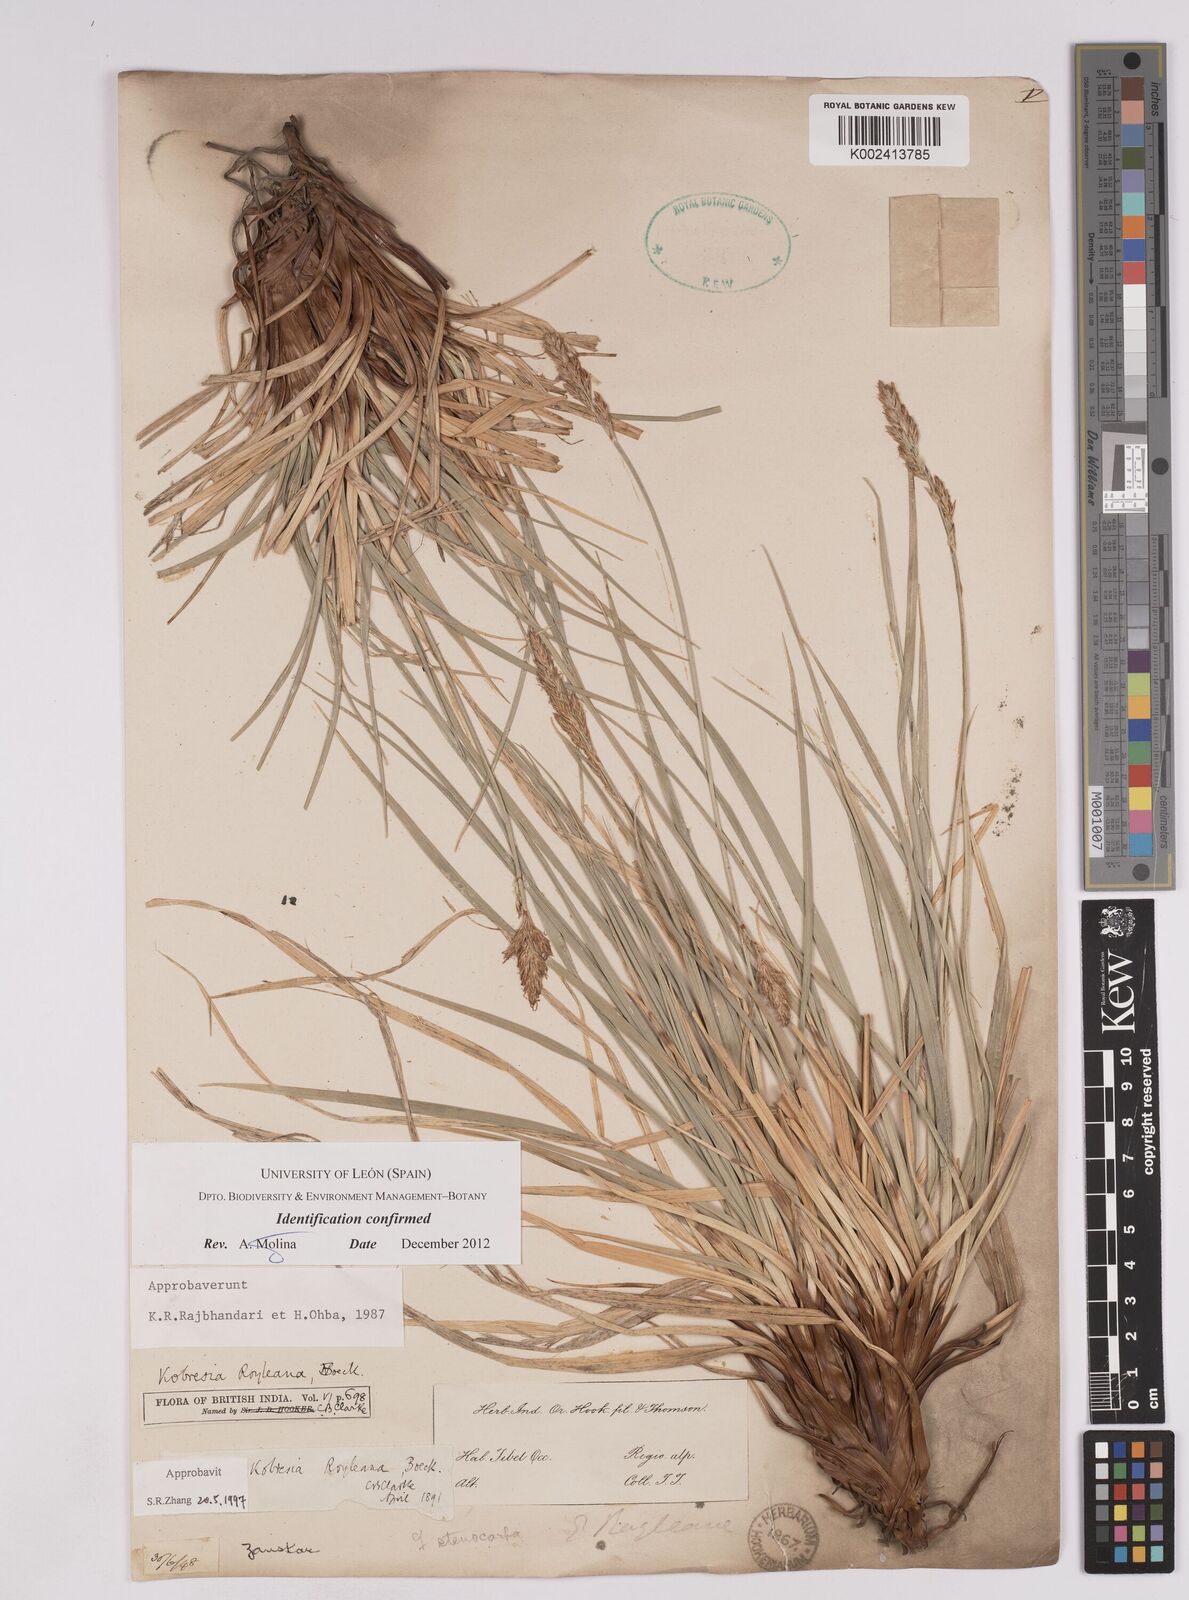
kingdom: Plantae
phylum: Tracheophyta
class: Liliopsida
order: Poales
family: Cyperaceae
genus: Carex
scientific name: Carex kokanica
